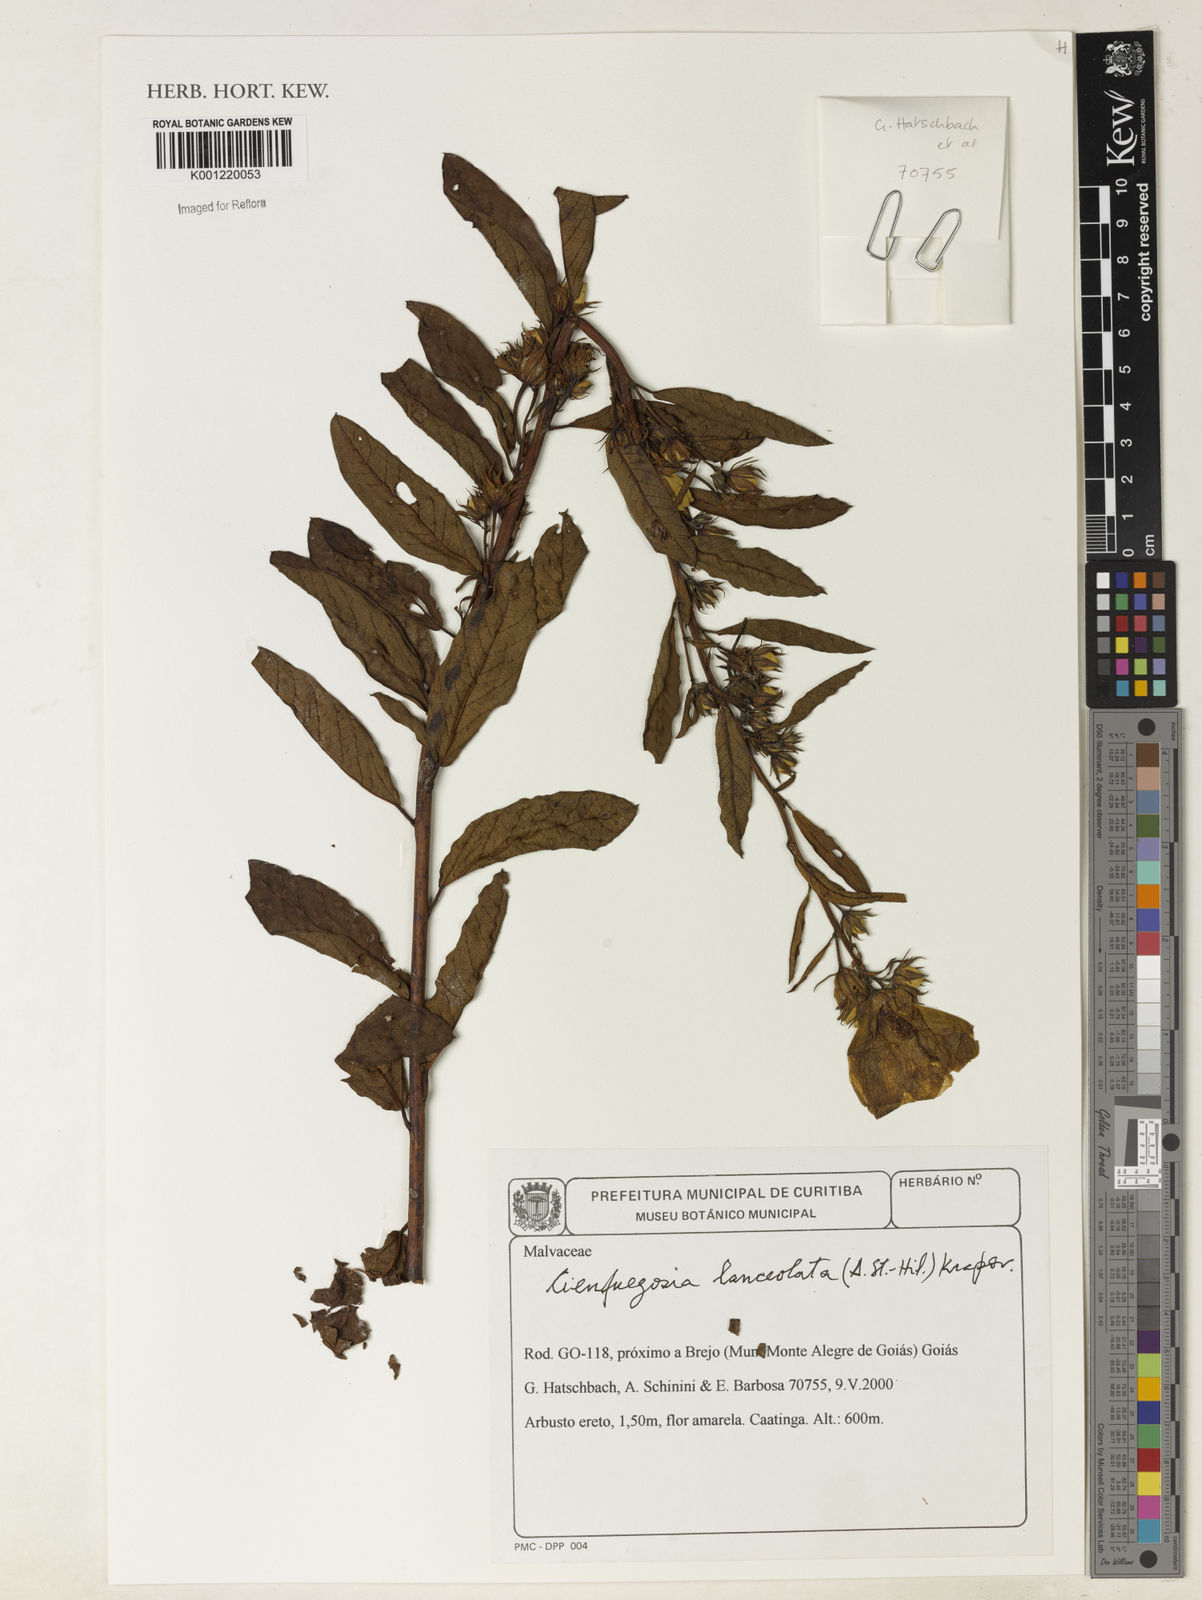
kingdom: Plantae
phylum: Tracheophyta
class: Magnoliopsida
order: Malvales
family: Malvaceae
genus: Cienfuegosia
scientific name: Cienfuegosia lanceolata
